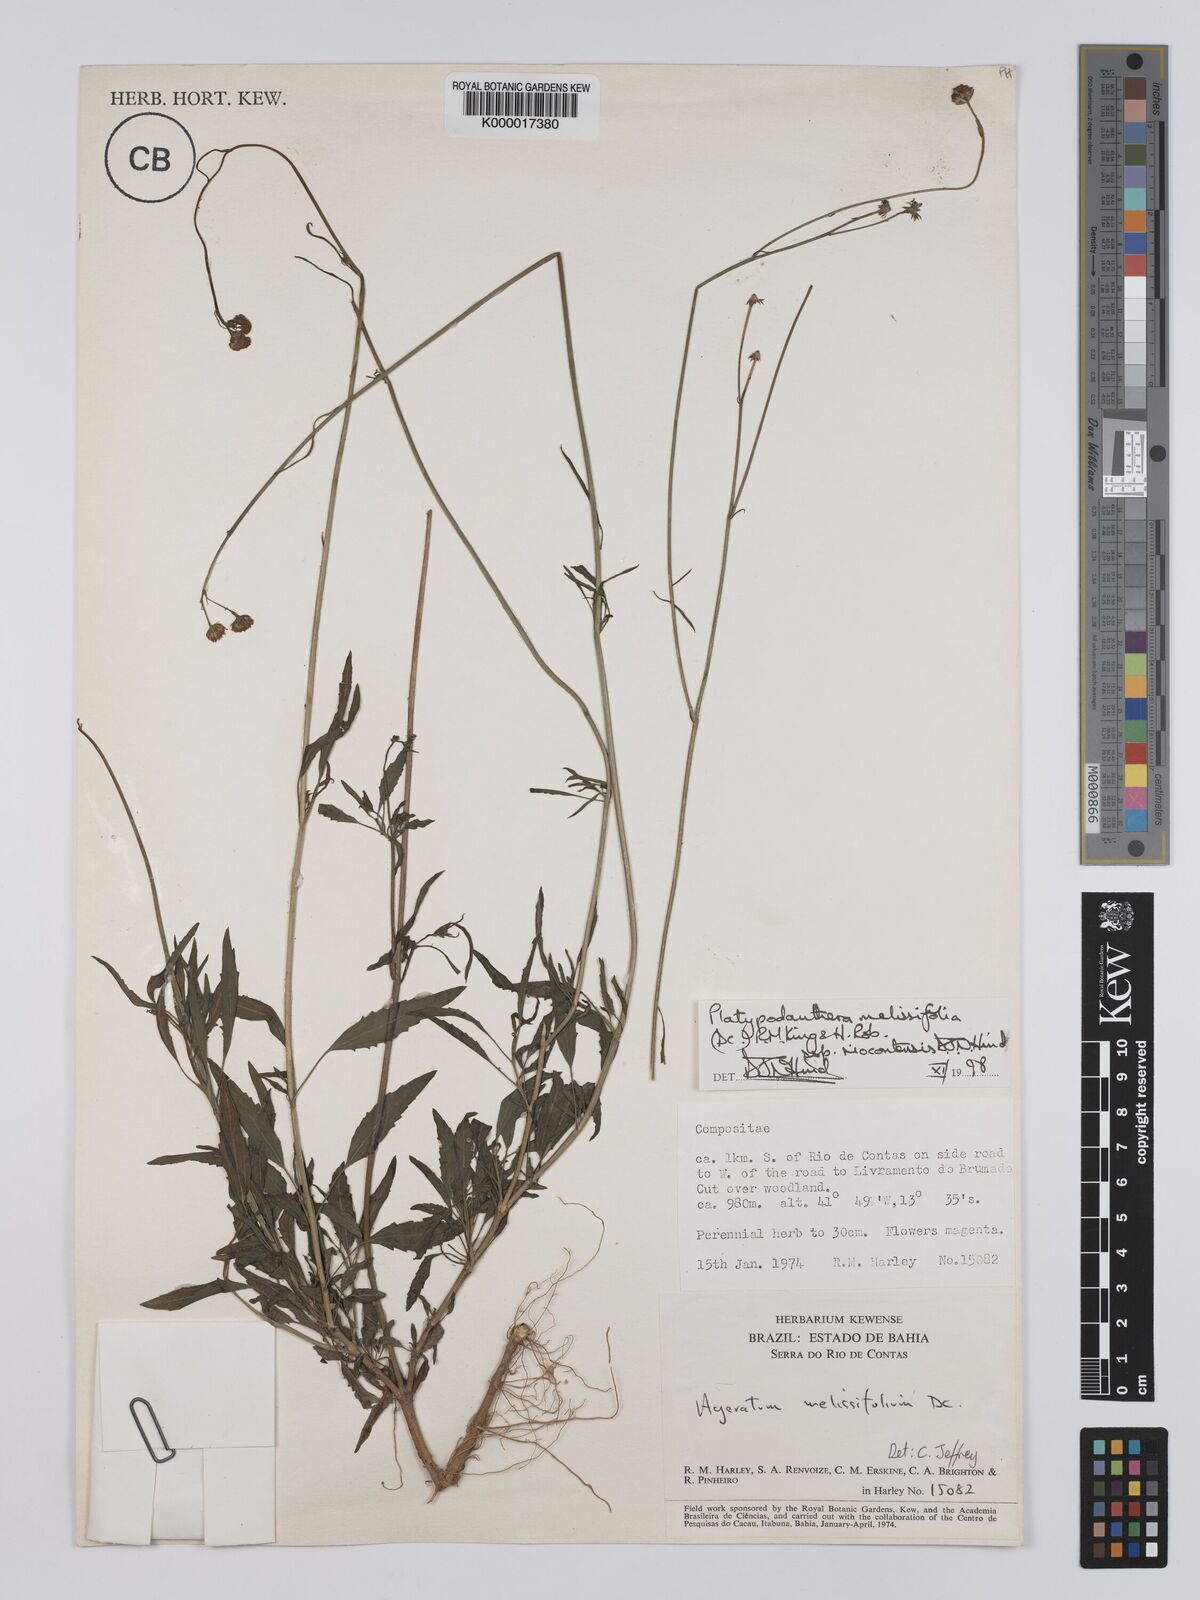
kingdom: Plantae
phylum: Tracheophyta
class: Magnoliopsida
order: Asterales
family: Asteraceae
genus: Platypodanthera
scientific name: Platypodanthera melissifolia
